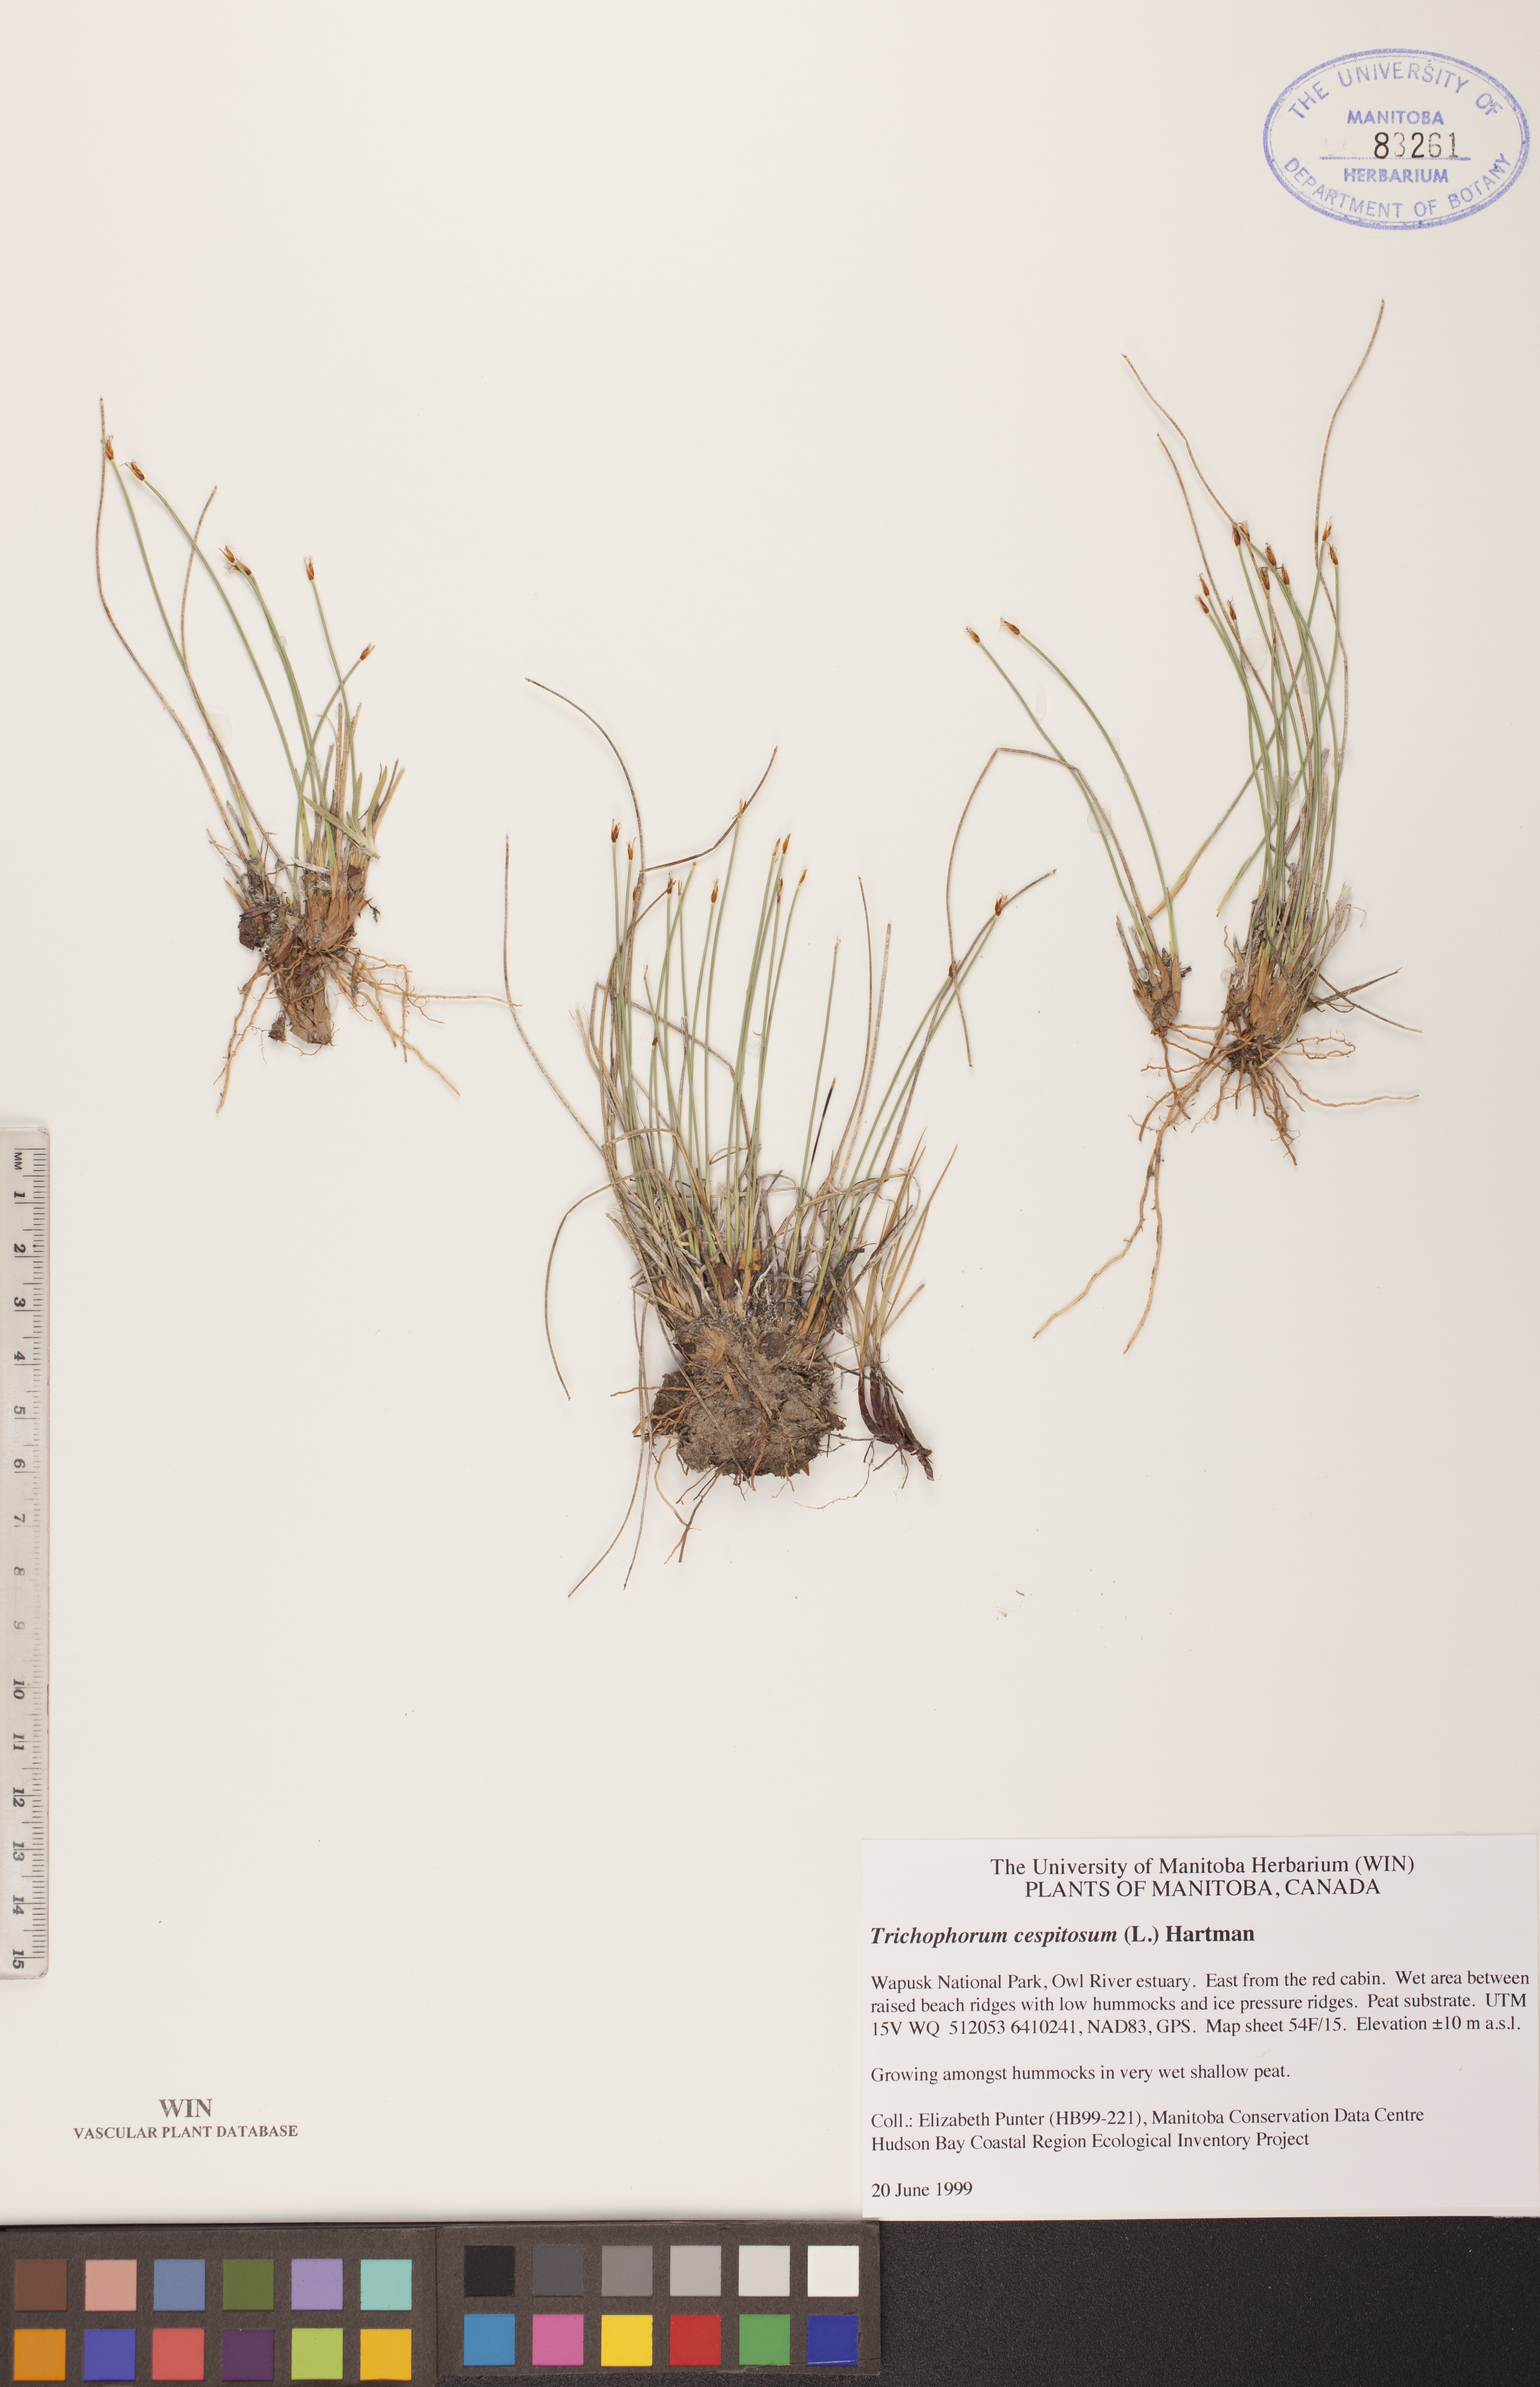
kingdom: Plantae
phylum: Tracheophyta
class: Liliopsida
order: Poales
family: Cyperaceae
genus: Trichophorum
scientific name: Trichophorum cespitosum
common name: Cespitose bulrush
